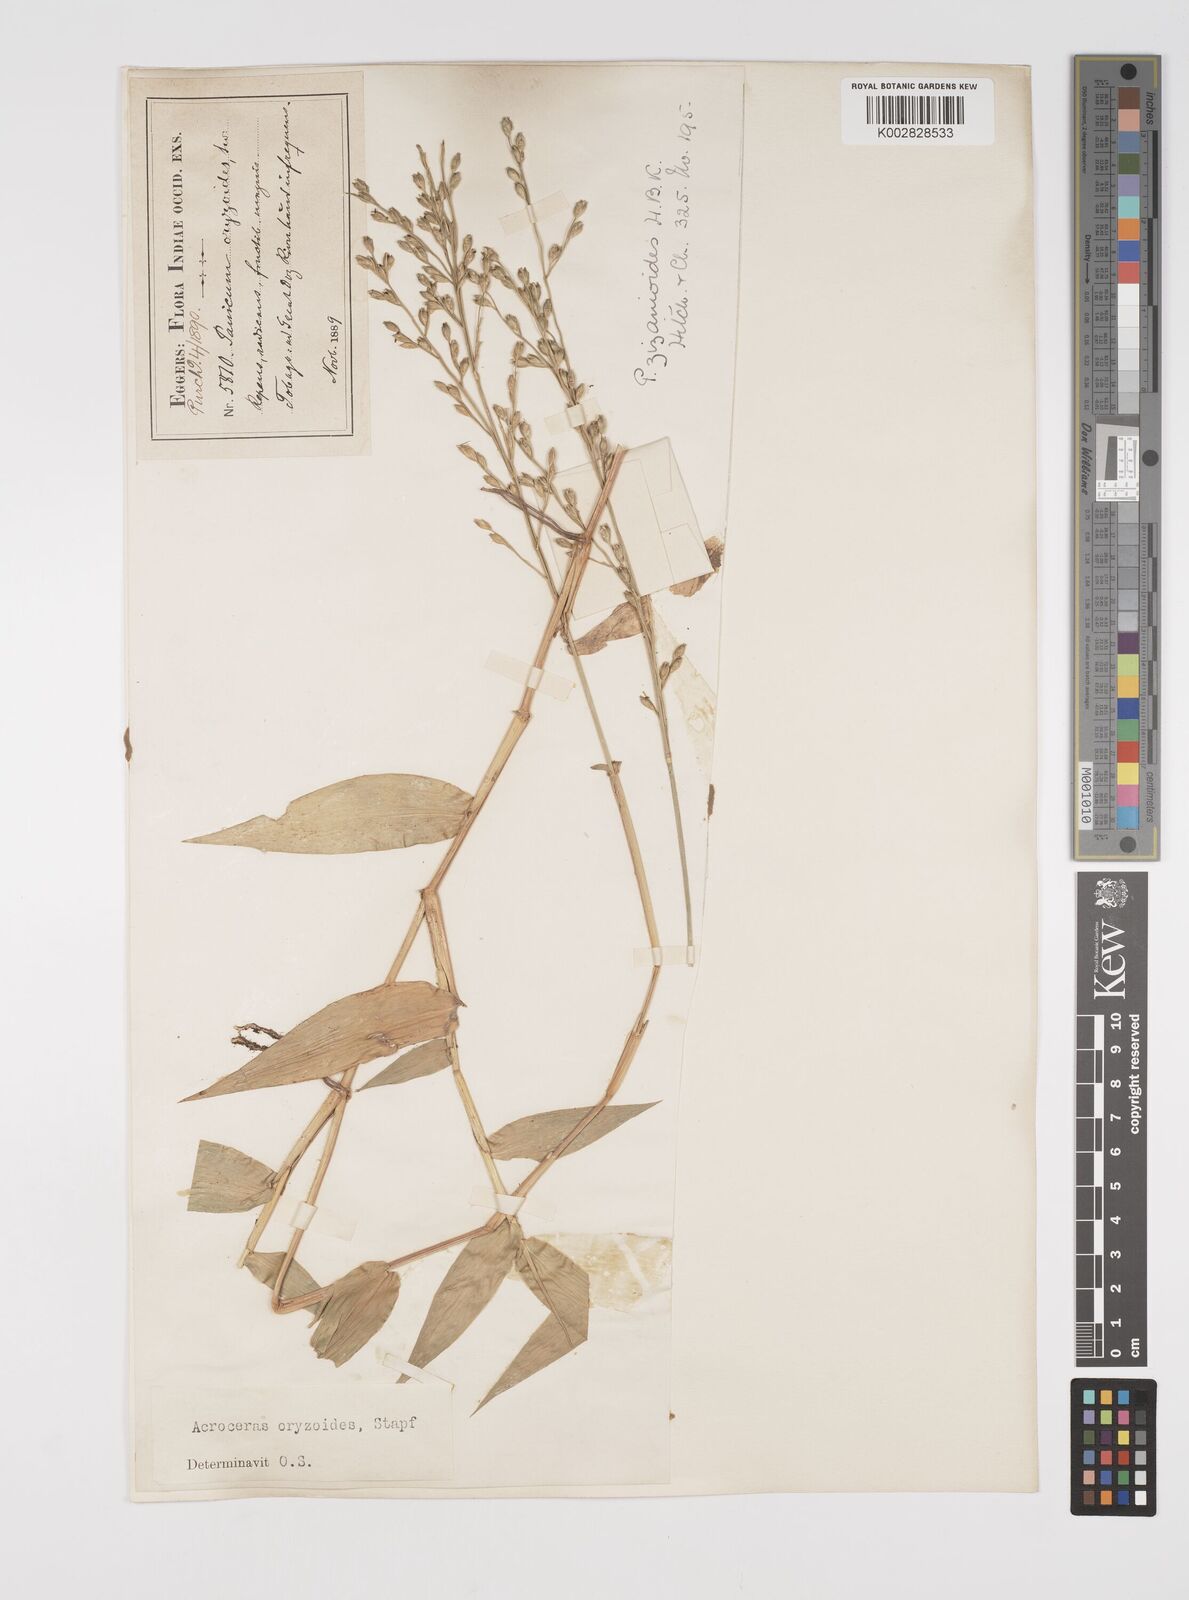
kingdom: Plantae
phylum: Tracheophyta
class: Liliopsida
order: Poales
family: Poaceae
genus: Acroceras
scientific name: Acroceras zizanioides
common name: Oat grass
